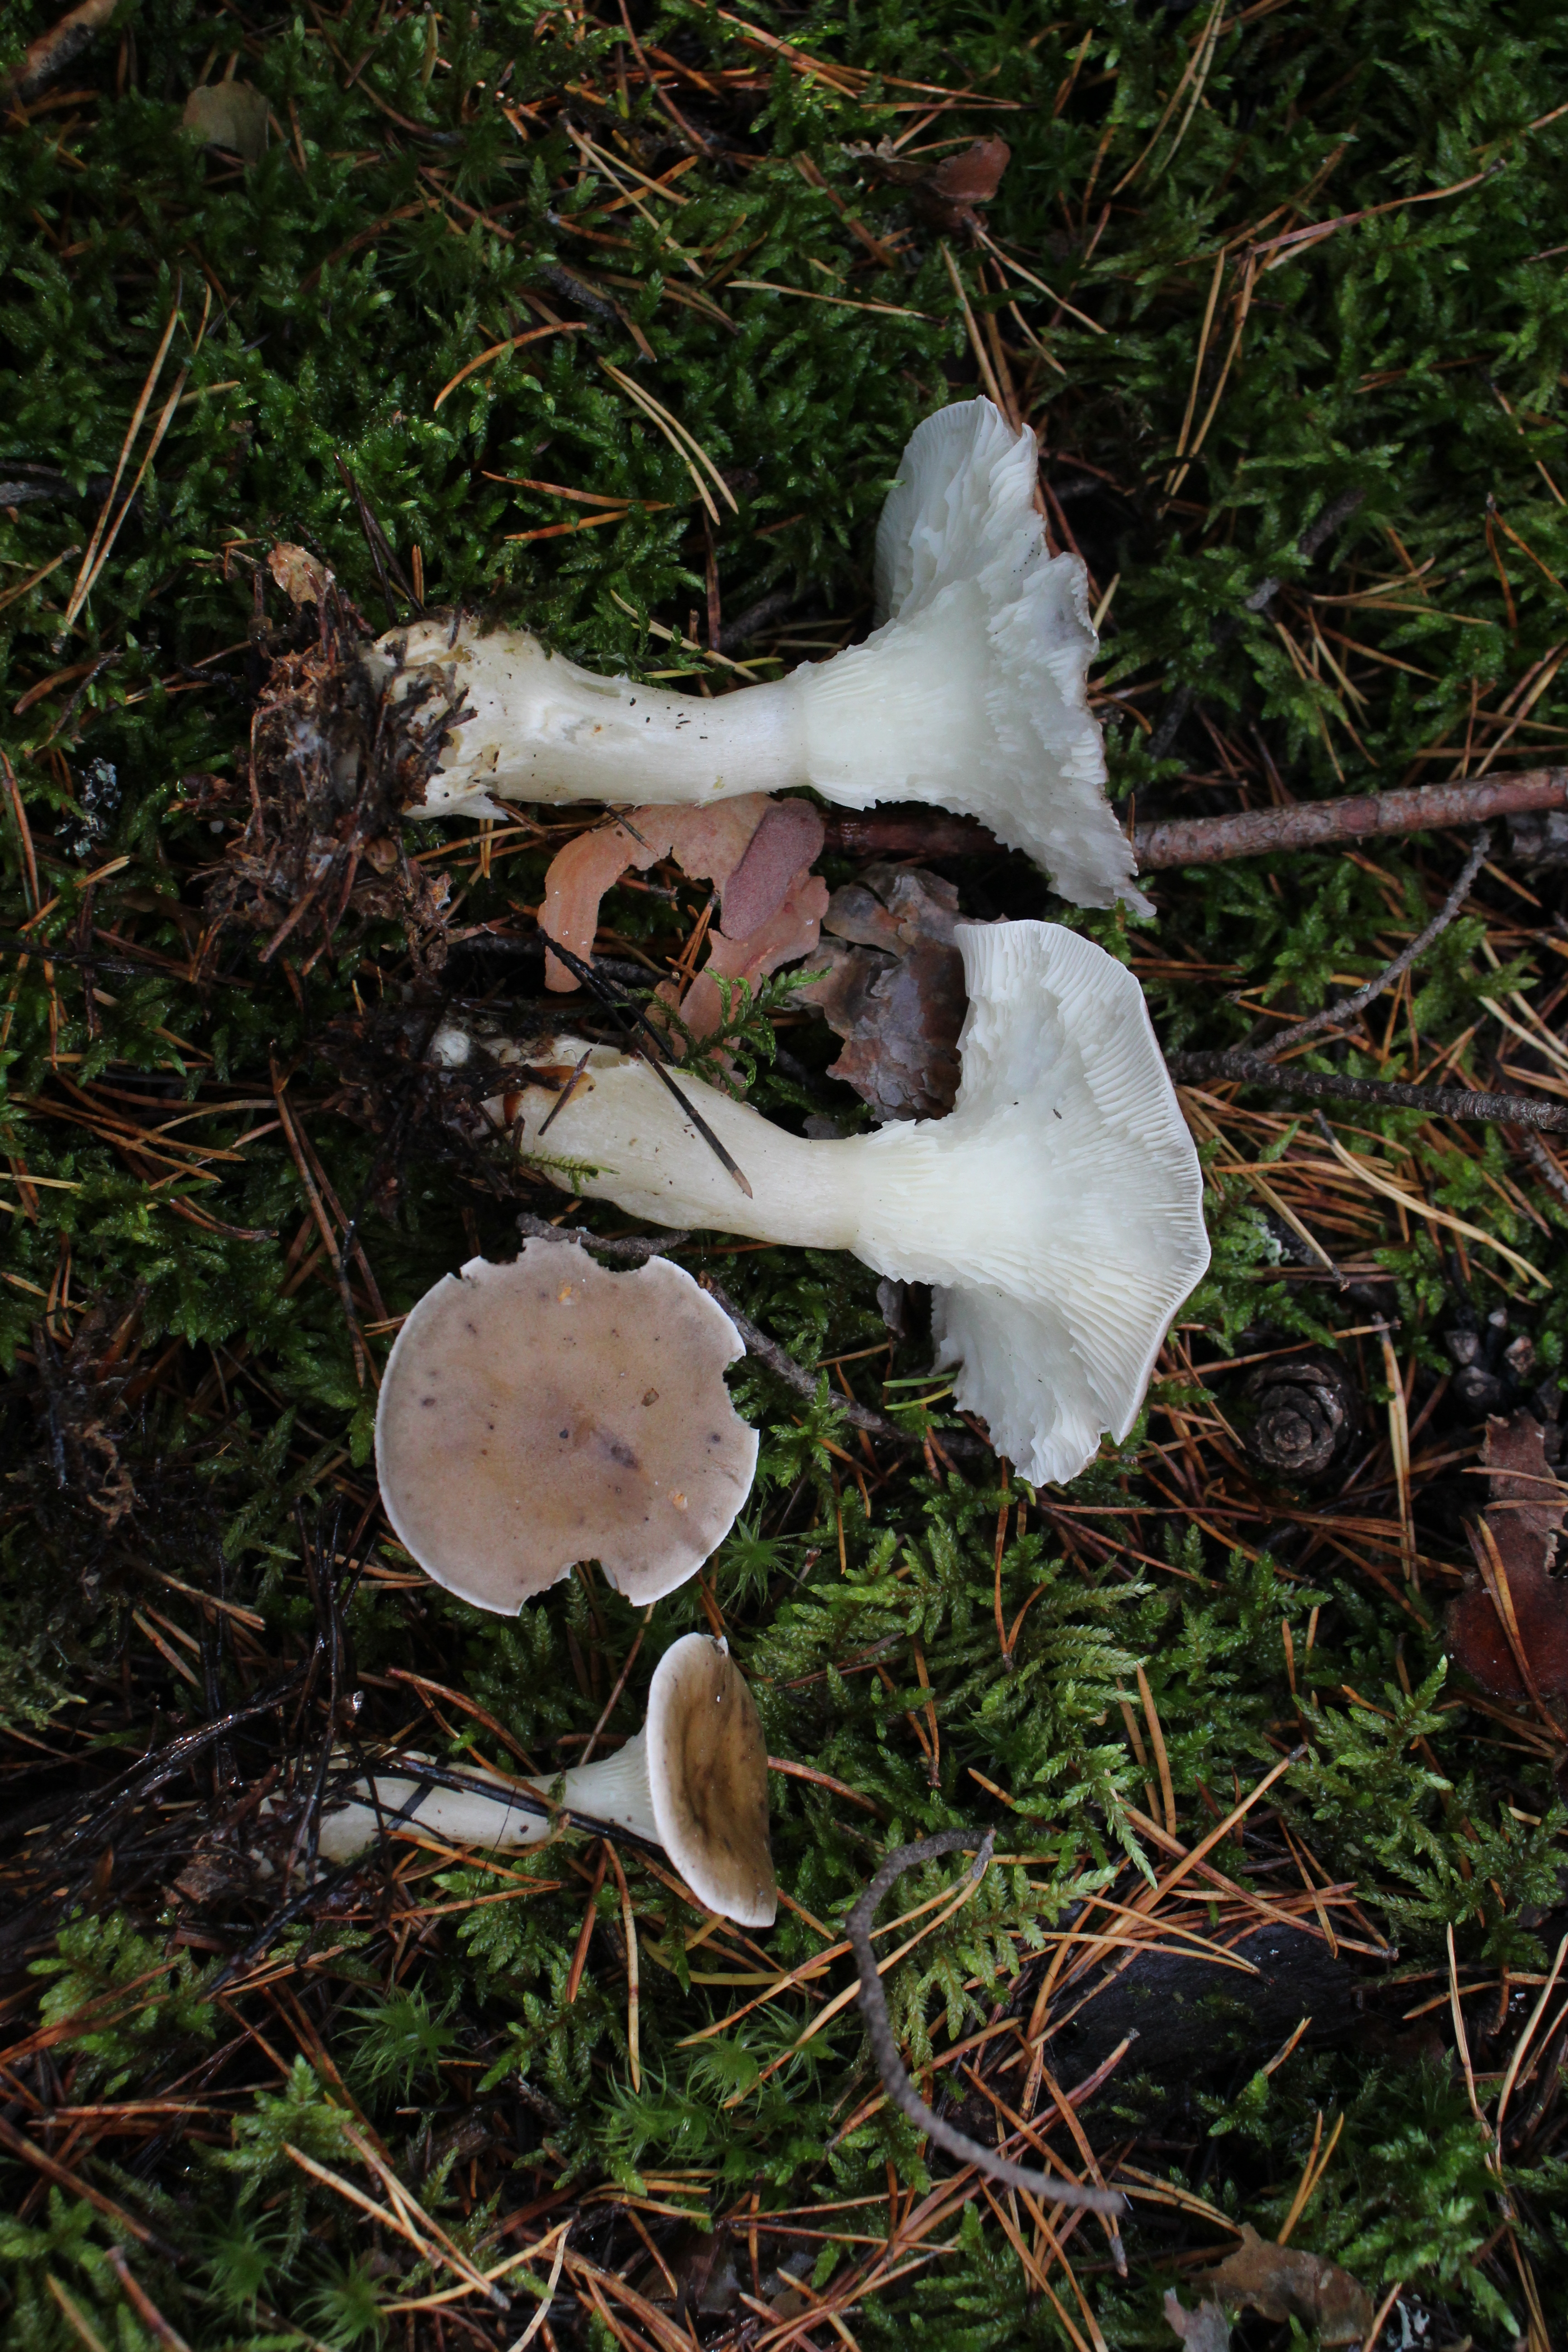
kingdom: Fungi
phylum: Basidiomycota
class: Agaricomycetes
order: Agaricales
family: Hygrophoraceae
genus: Ampulloclitocybe
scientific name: Ampulloclitocybe clavipes
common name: Club foot
